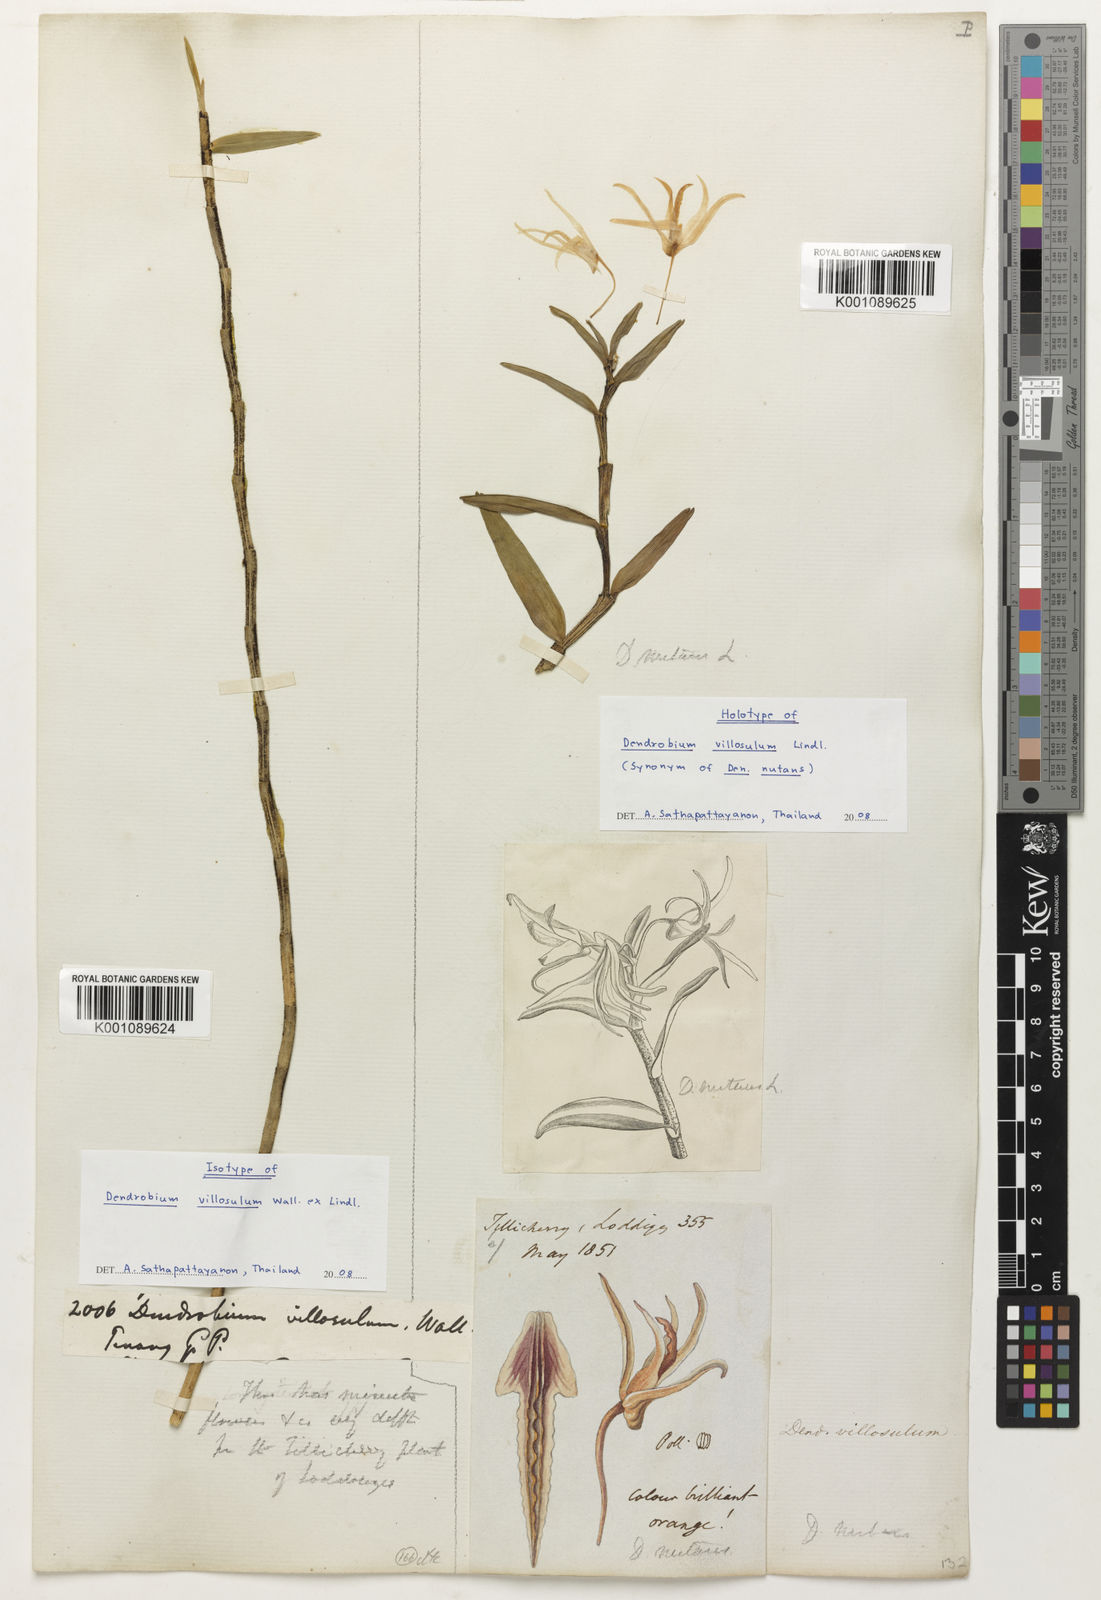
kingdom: Plantae
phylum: Tracheophyta
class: Liliopsida
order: Asparagales
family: Orchidaceae
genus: Dendrobium
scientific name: Dendrobium nutantiflorum
